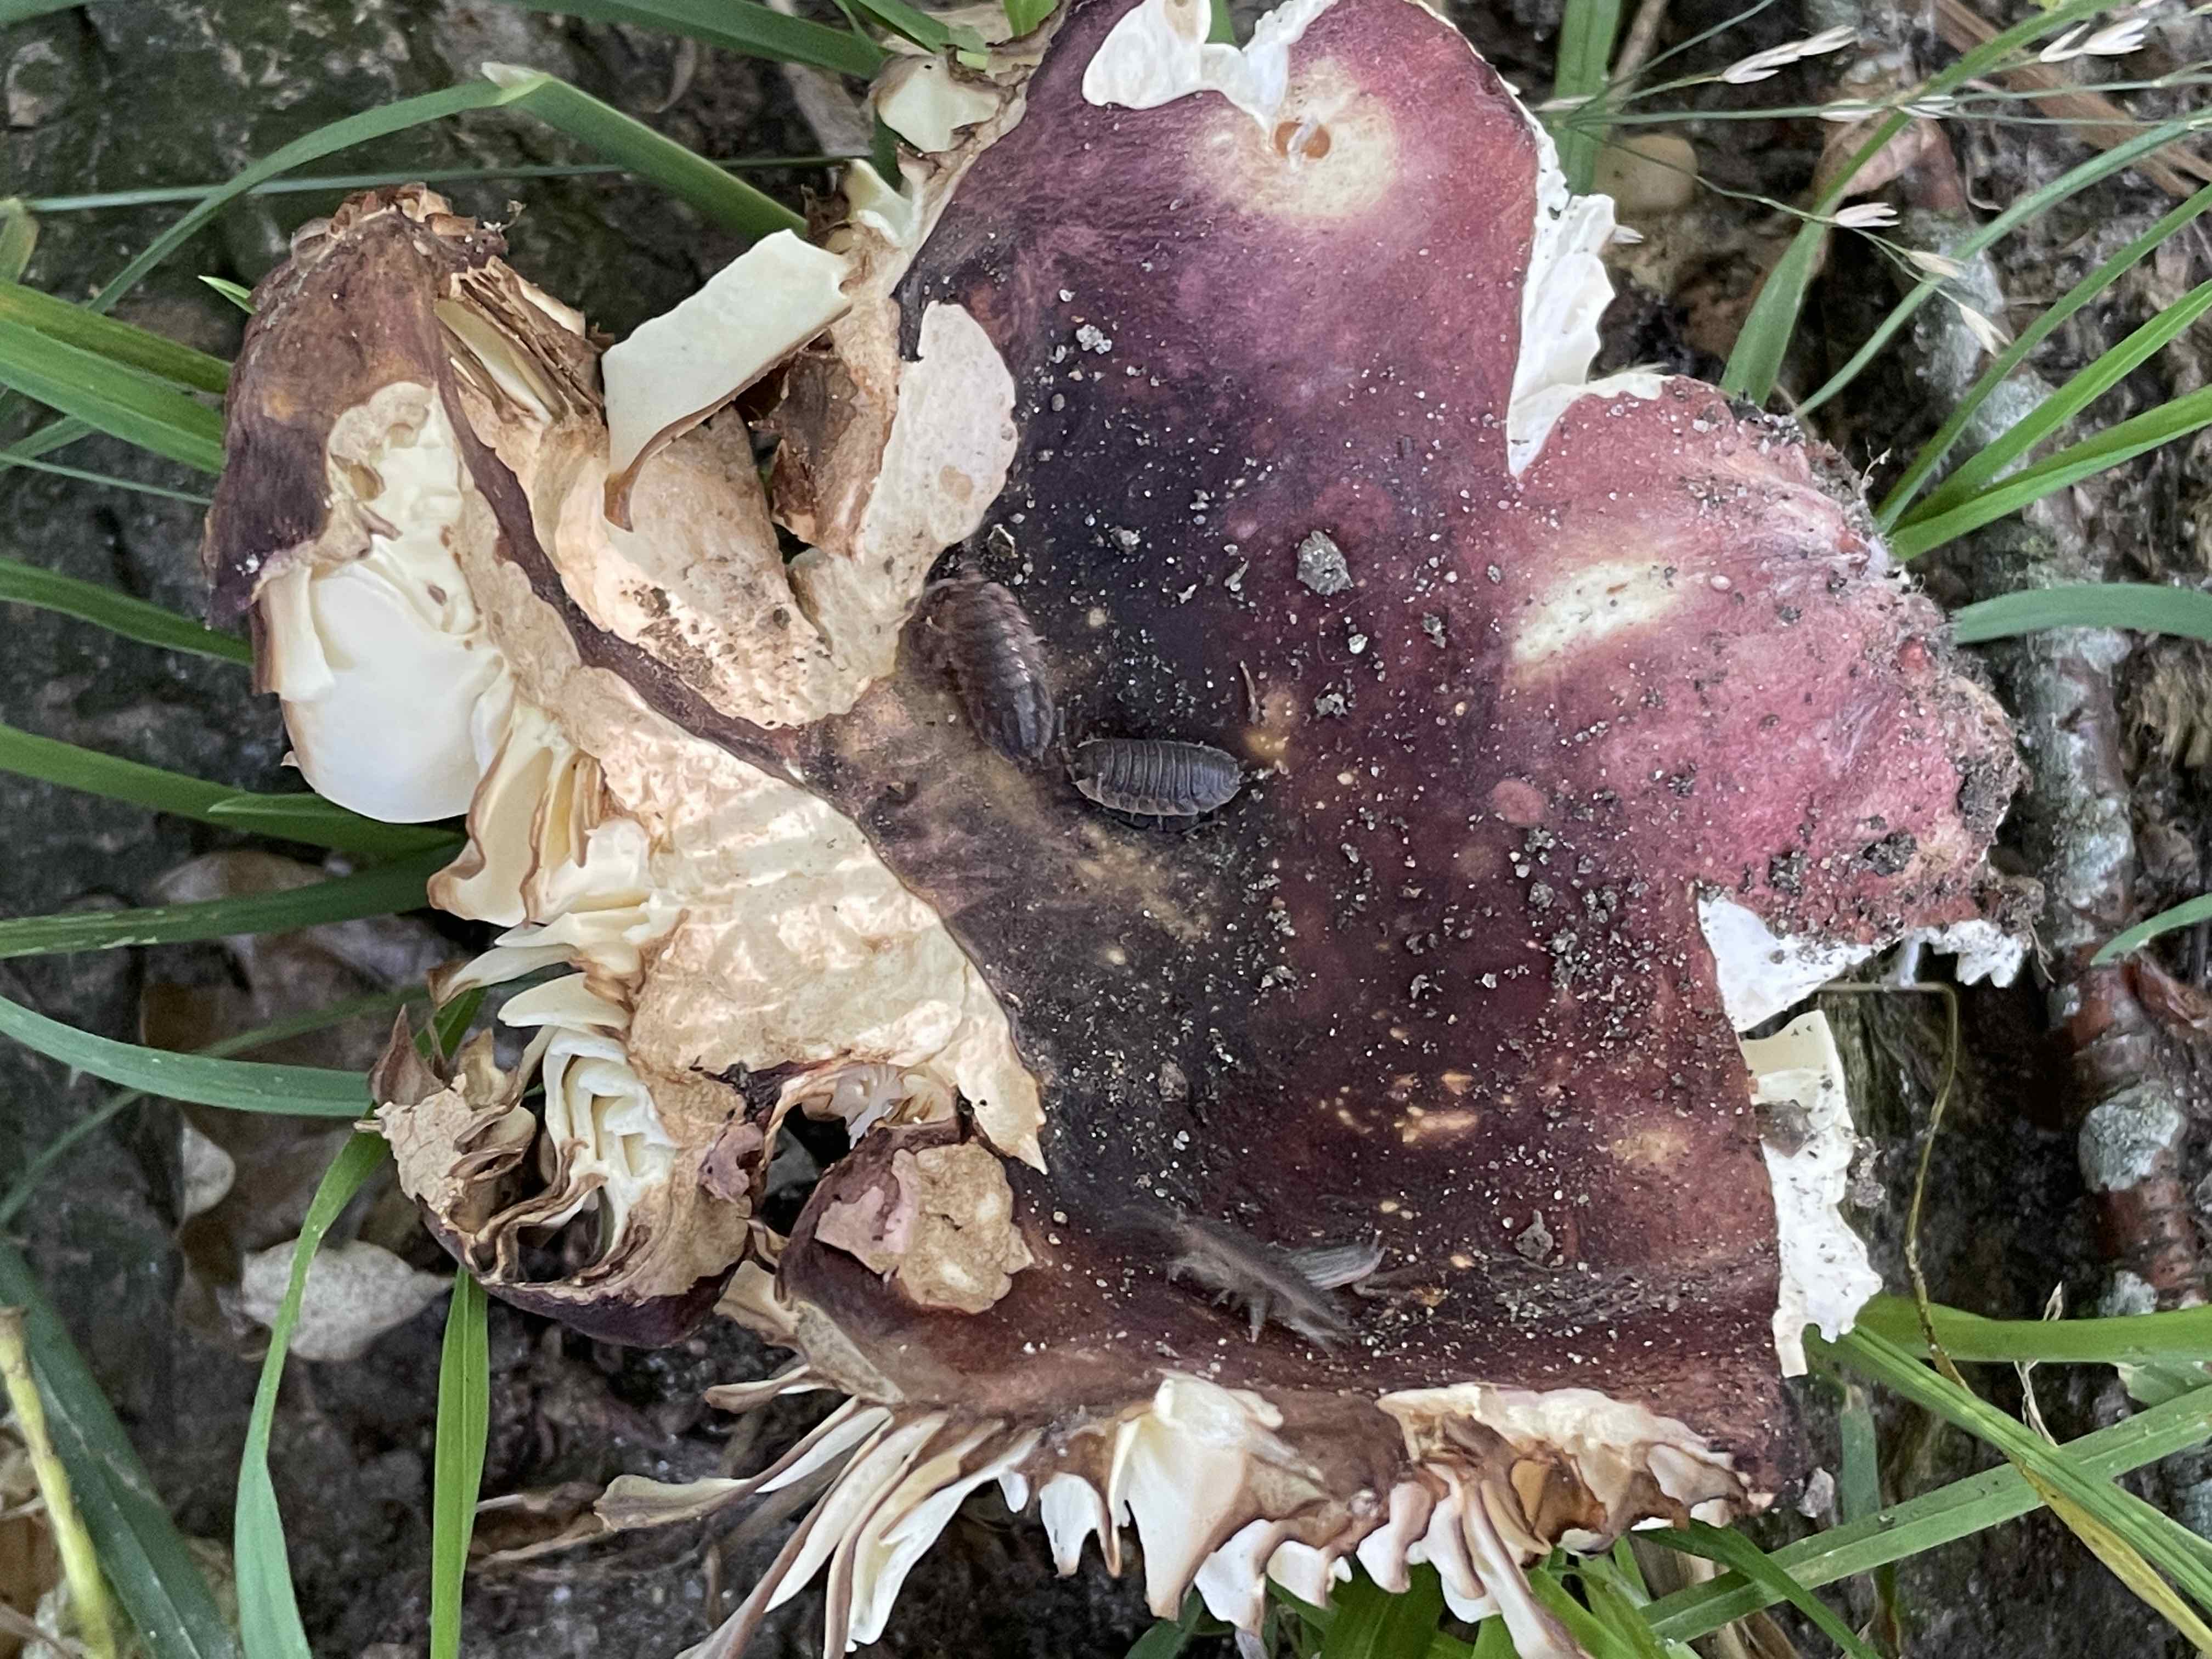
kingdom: Fungi
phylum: Basidiomycota
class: Agaricomycetes
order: Russulales
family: Russulaceae
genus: Russula
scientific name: Russula graveolens
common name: bugtet skørhat
